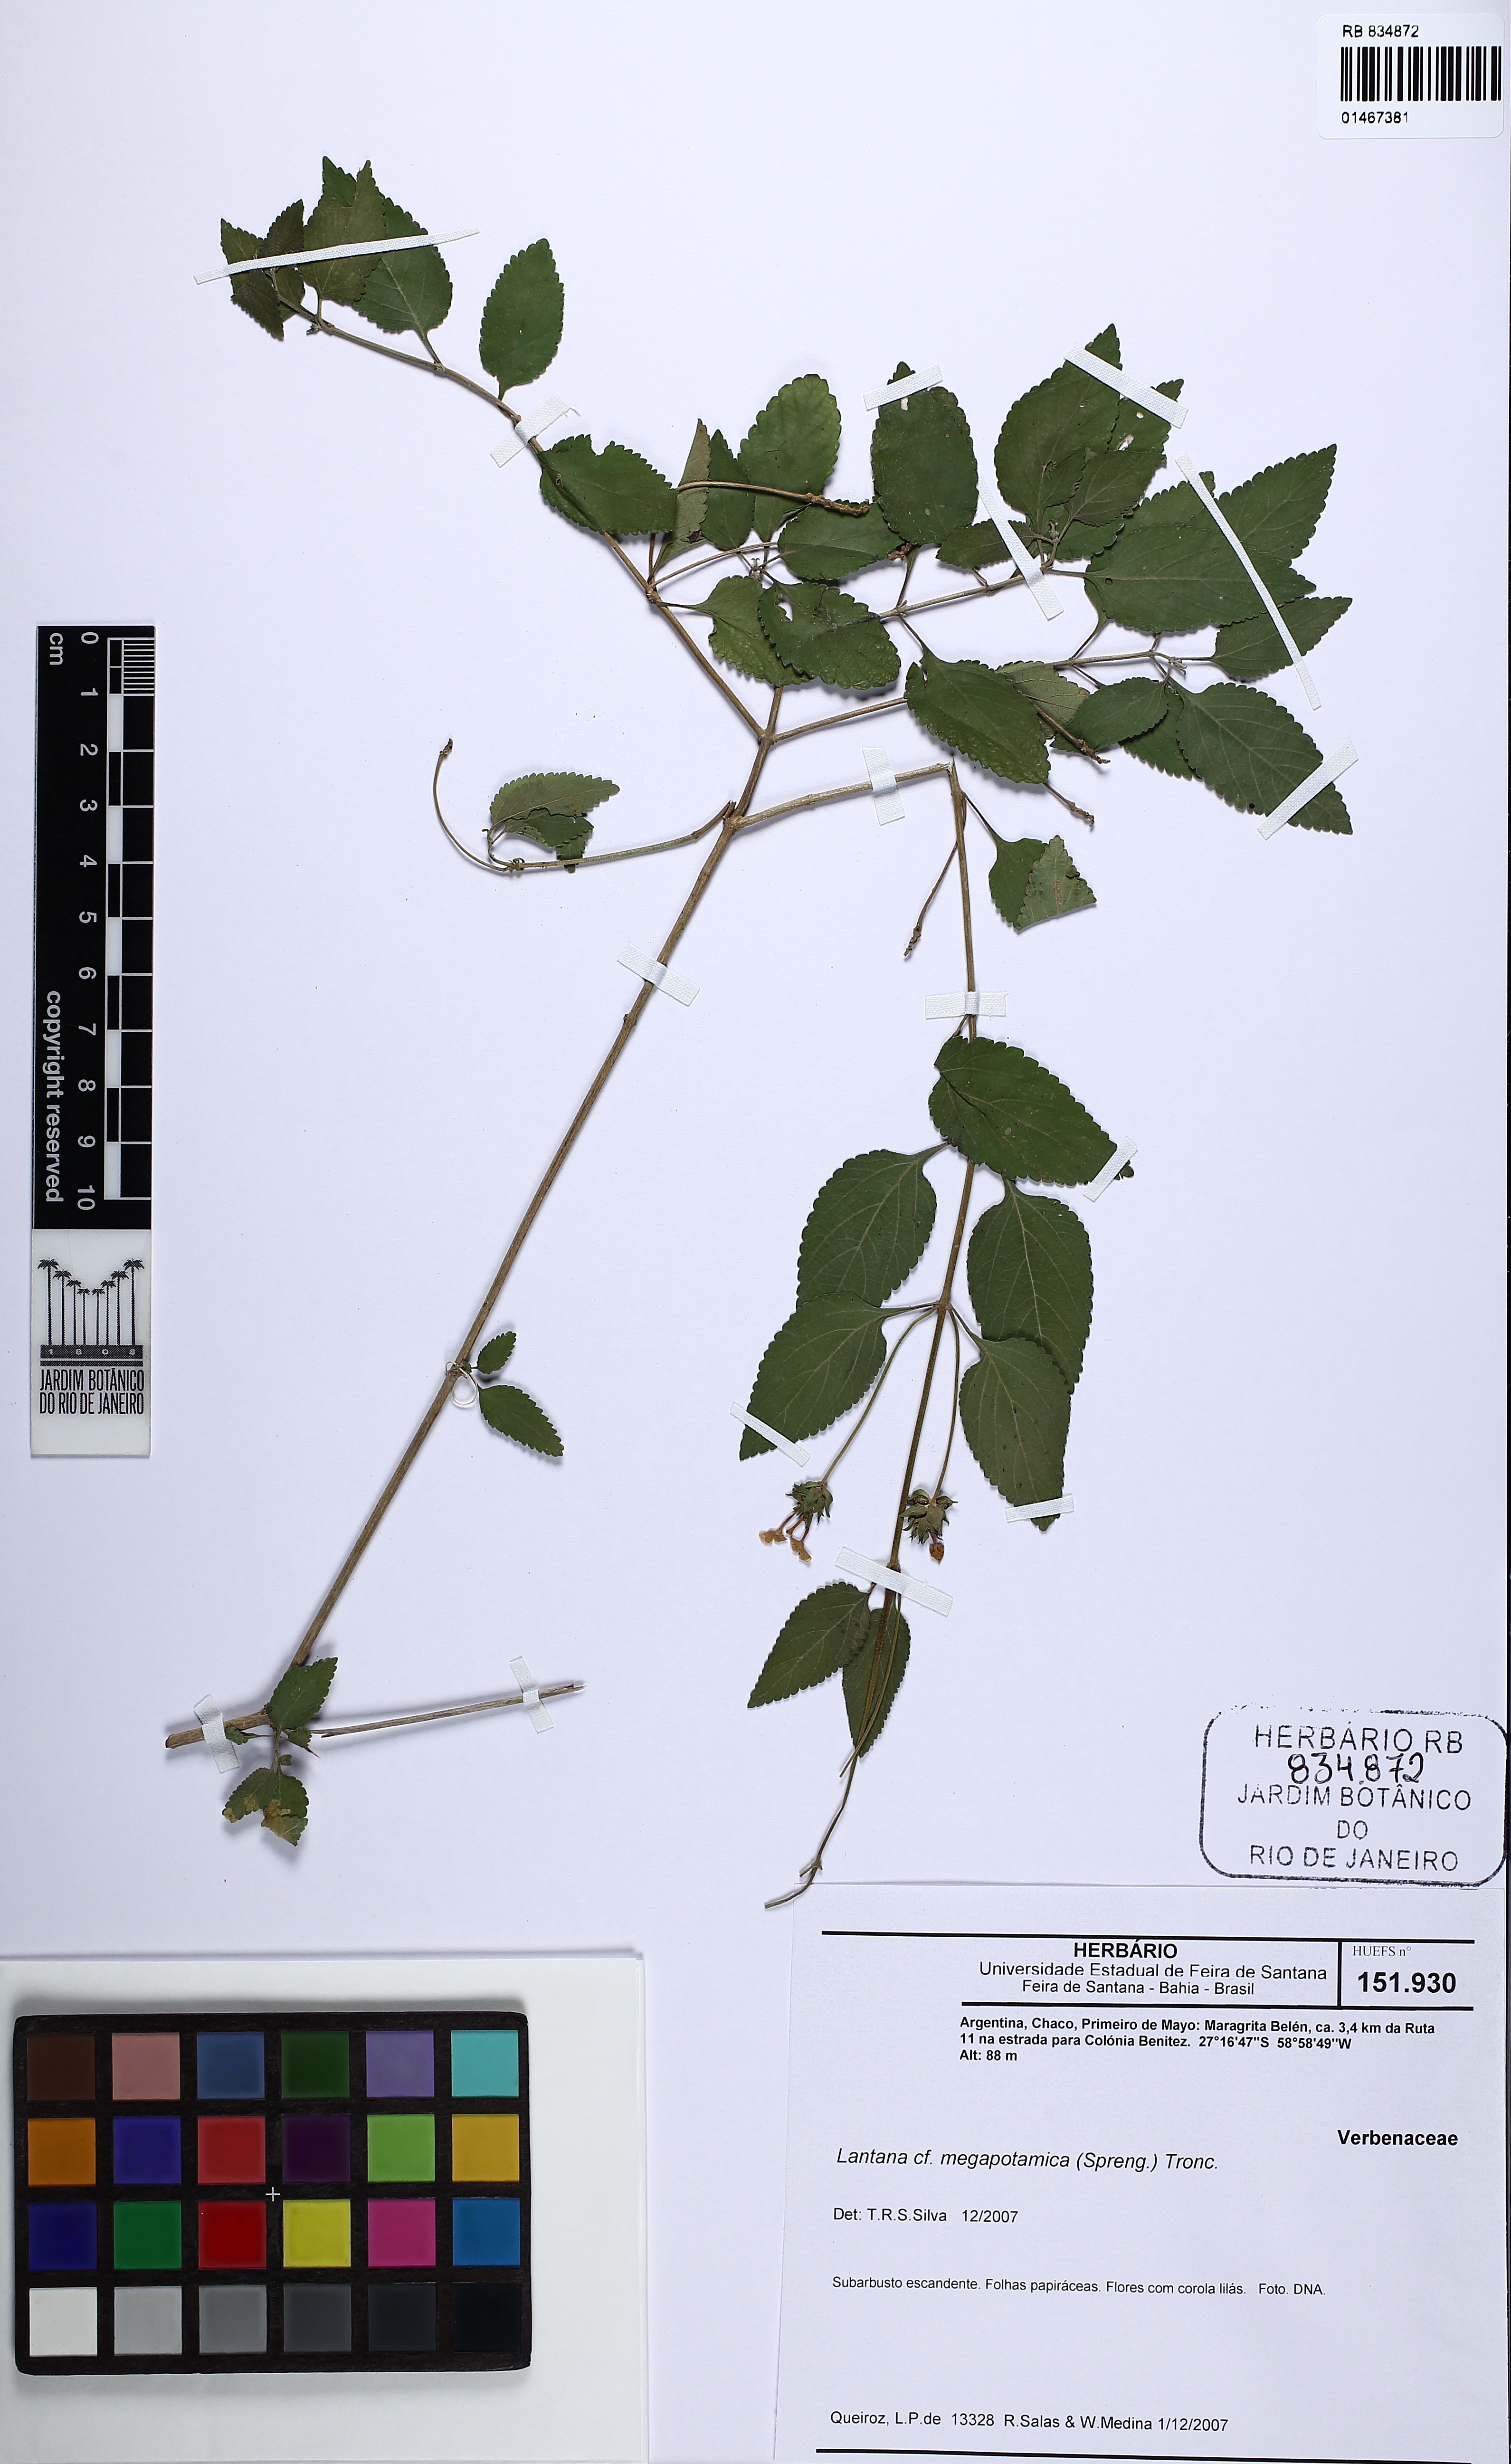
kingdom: Plantae
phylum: Tracheophyta
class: Magnoliopsida
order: Lamiales
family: Verbenaceae
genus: Lantana
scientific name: Lantana megapotamica
